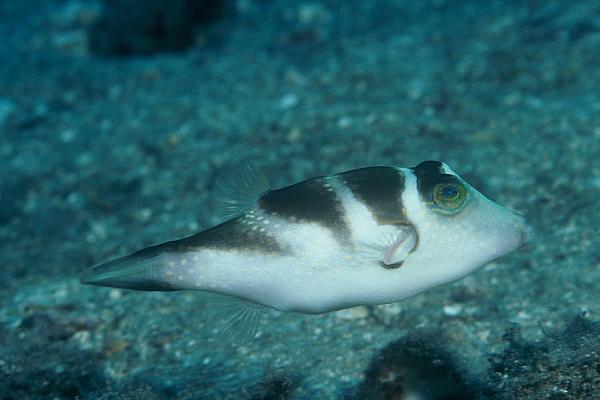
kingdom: Animalia
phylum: Chordata
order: Tetraodontiformes
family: Tetraodontidae
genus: Canthigaster
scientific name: Canthigaster coronata
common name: Crown toby
